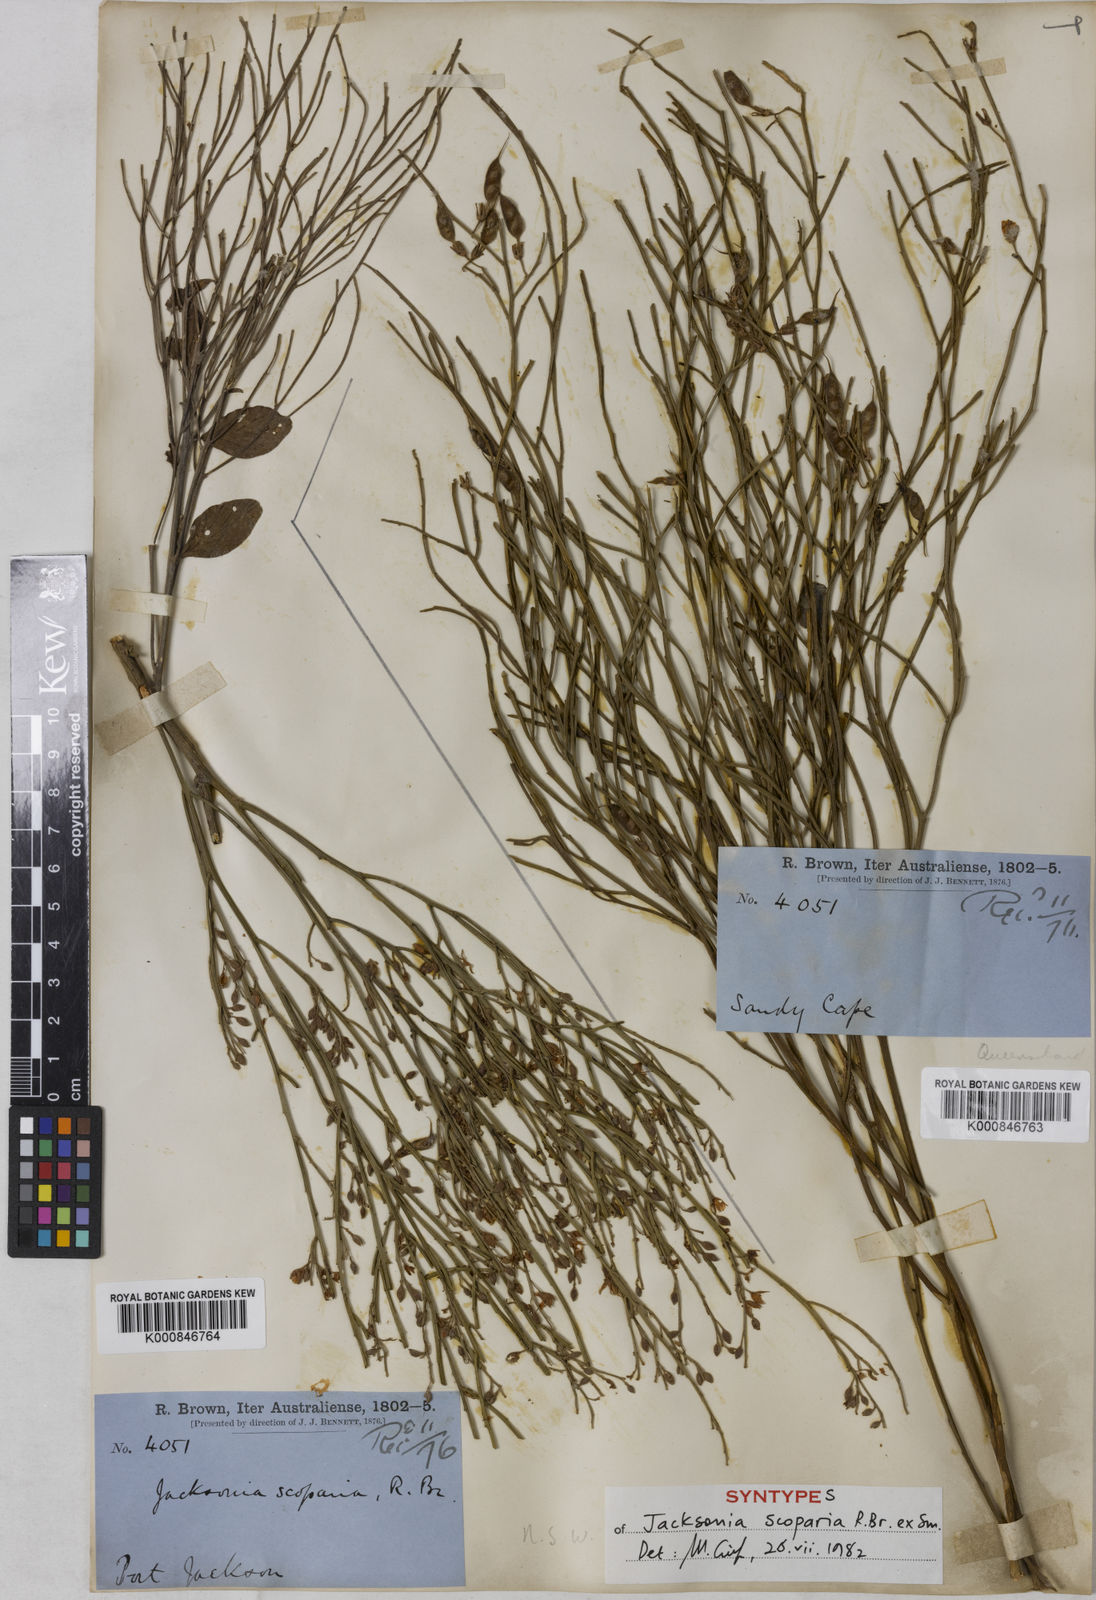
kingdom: Plantae
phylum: Tracheophyta
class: Magnoliopsida
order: Fabales
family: Fabaceae
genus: Jacksonia
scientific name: Jacksonia
